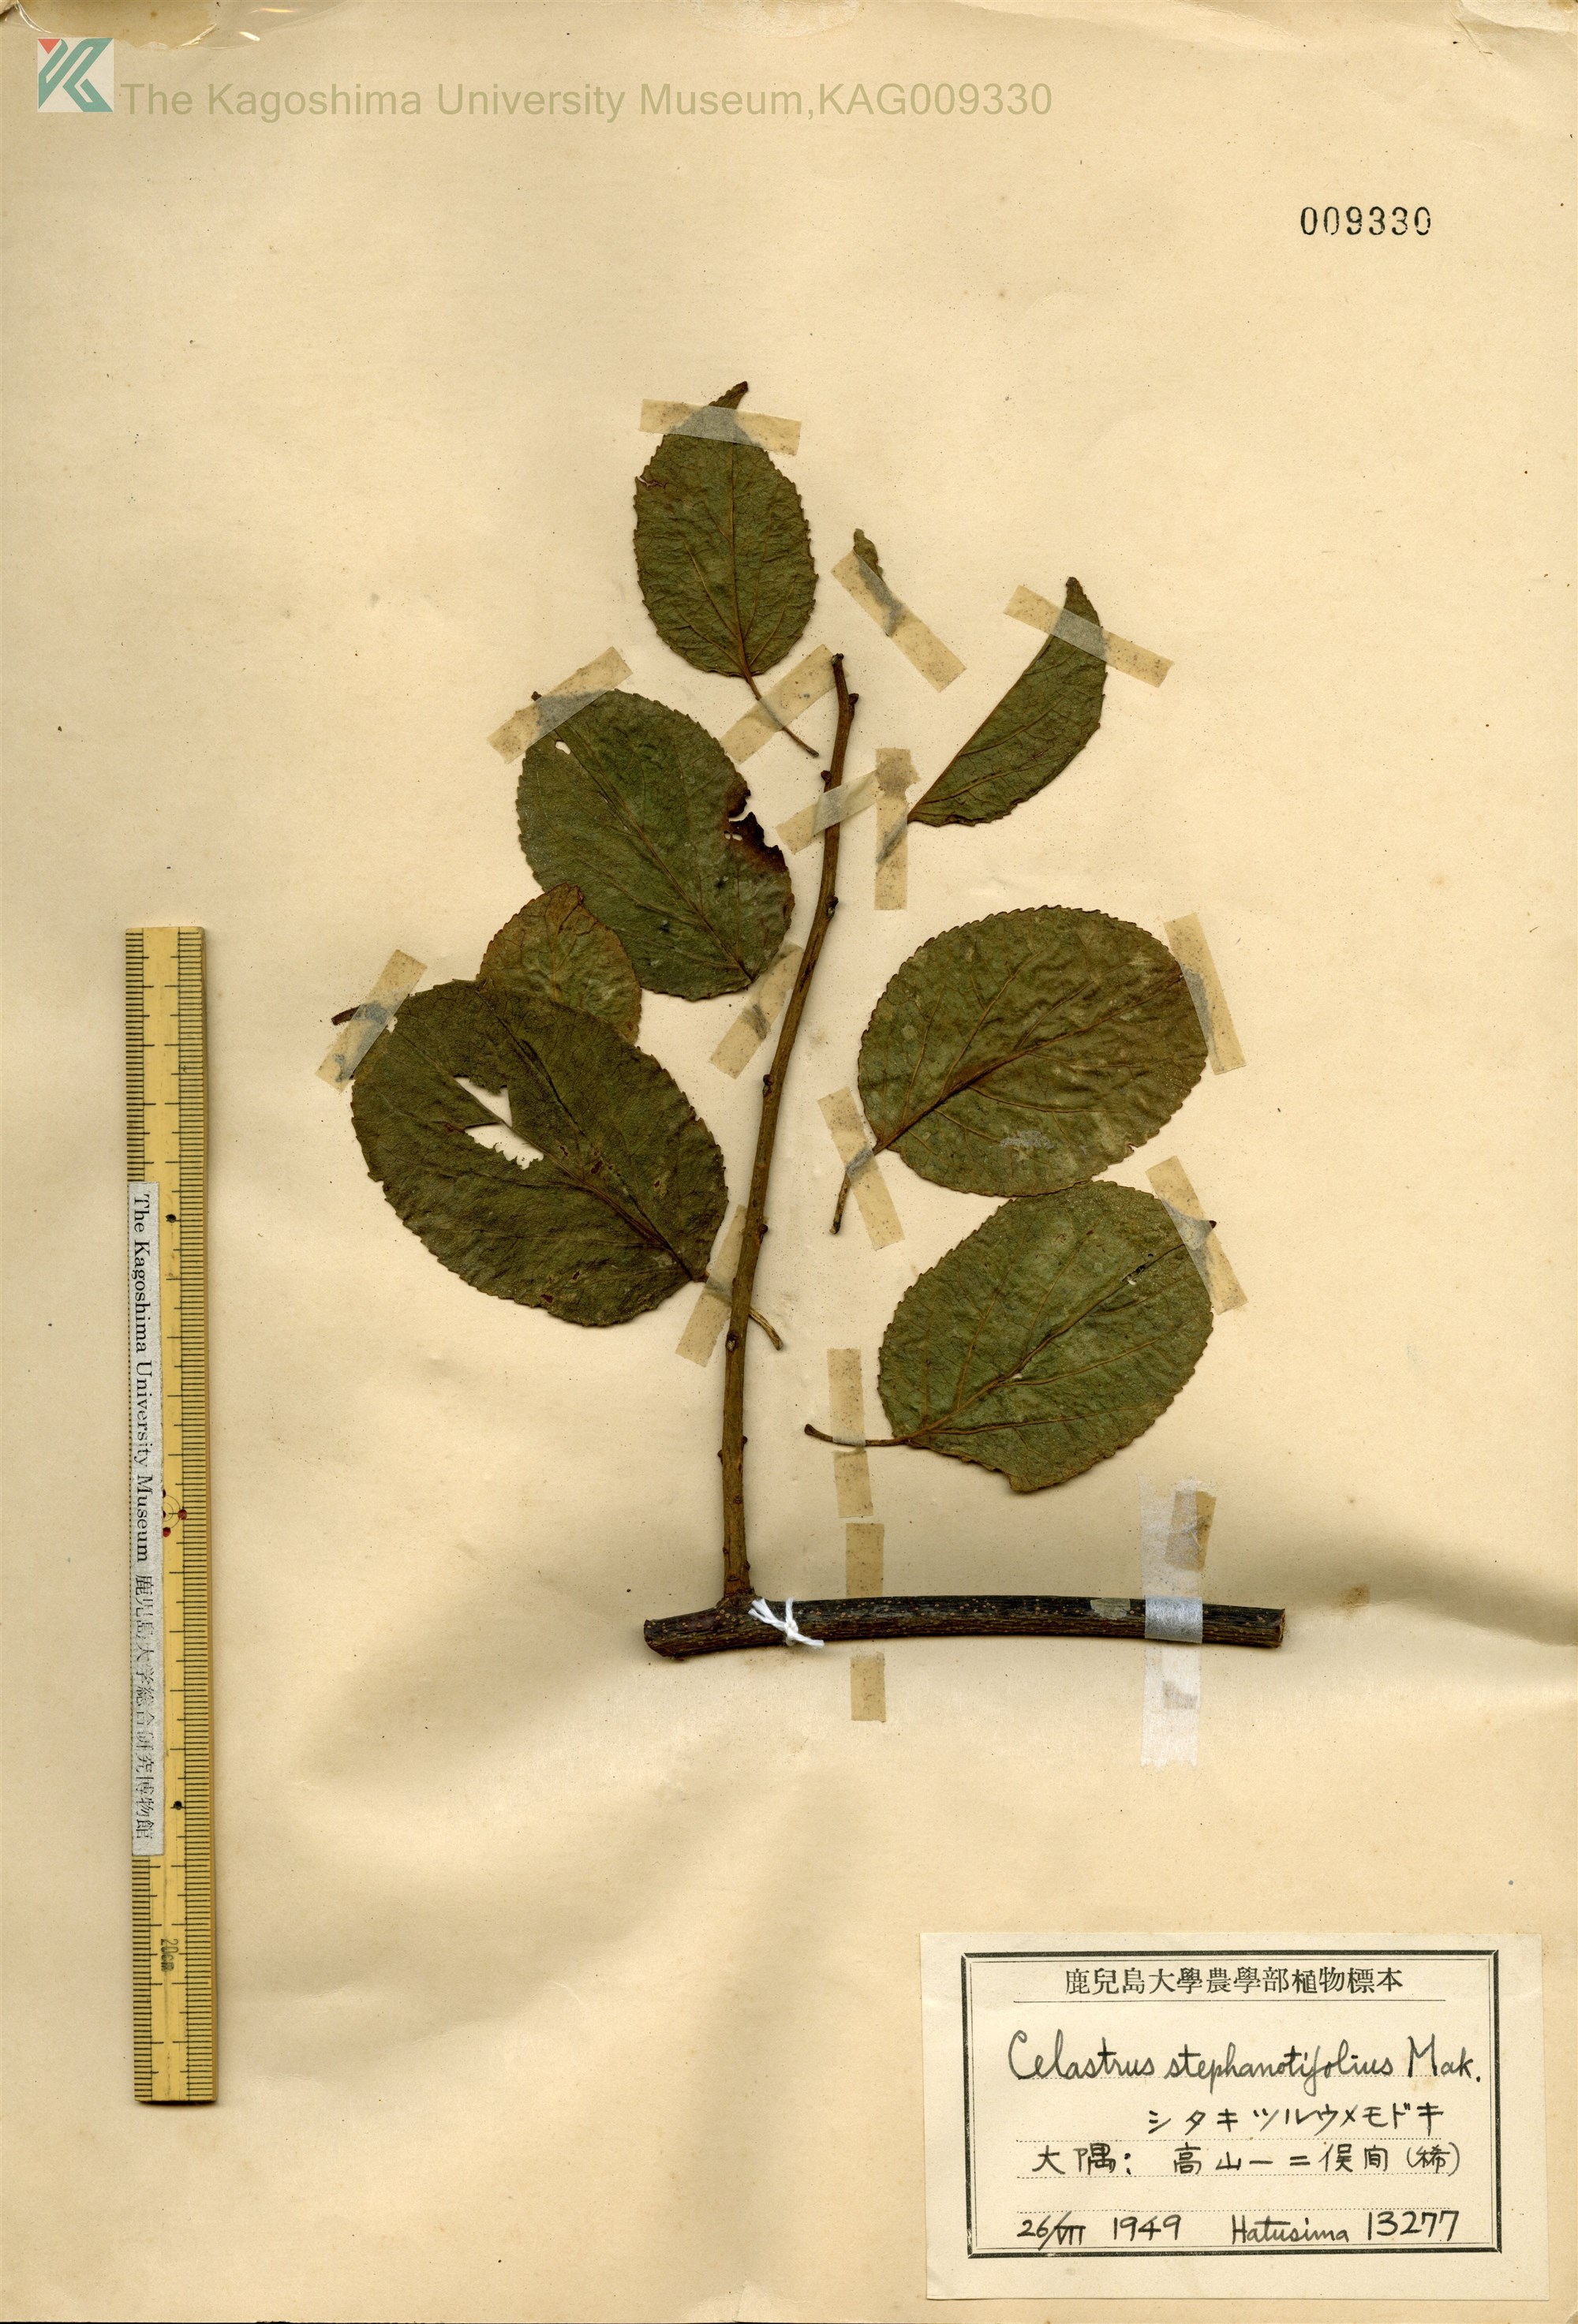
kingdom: Plantae
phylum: Tracheophyta
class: Magnoliopsida
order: Celastrales
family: Celastraceae
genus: Celastrus
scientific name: Celastrus stephanotifolius
